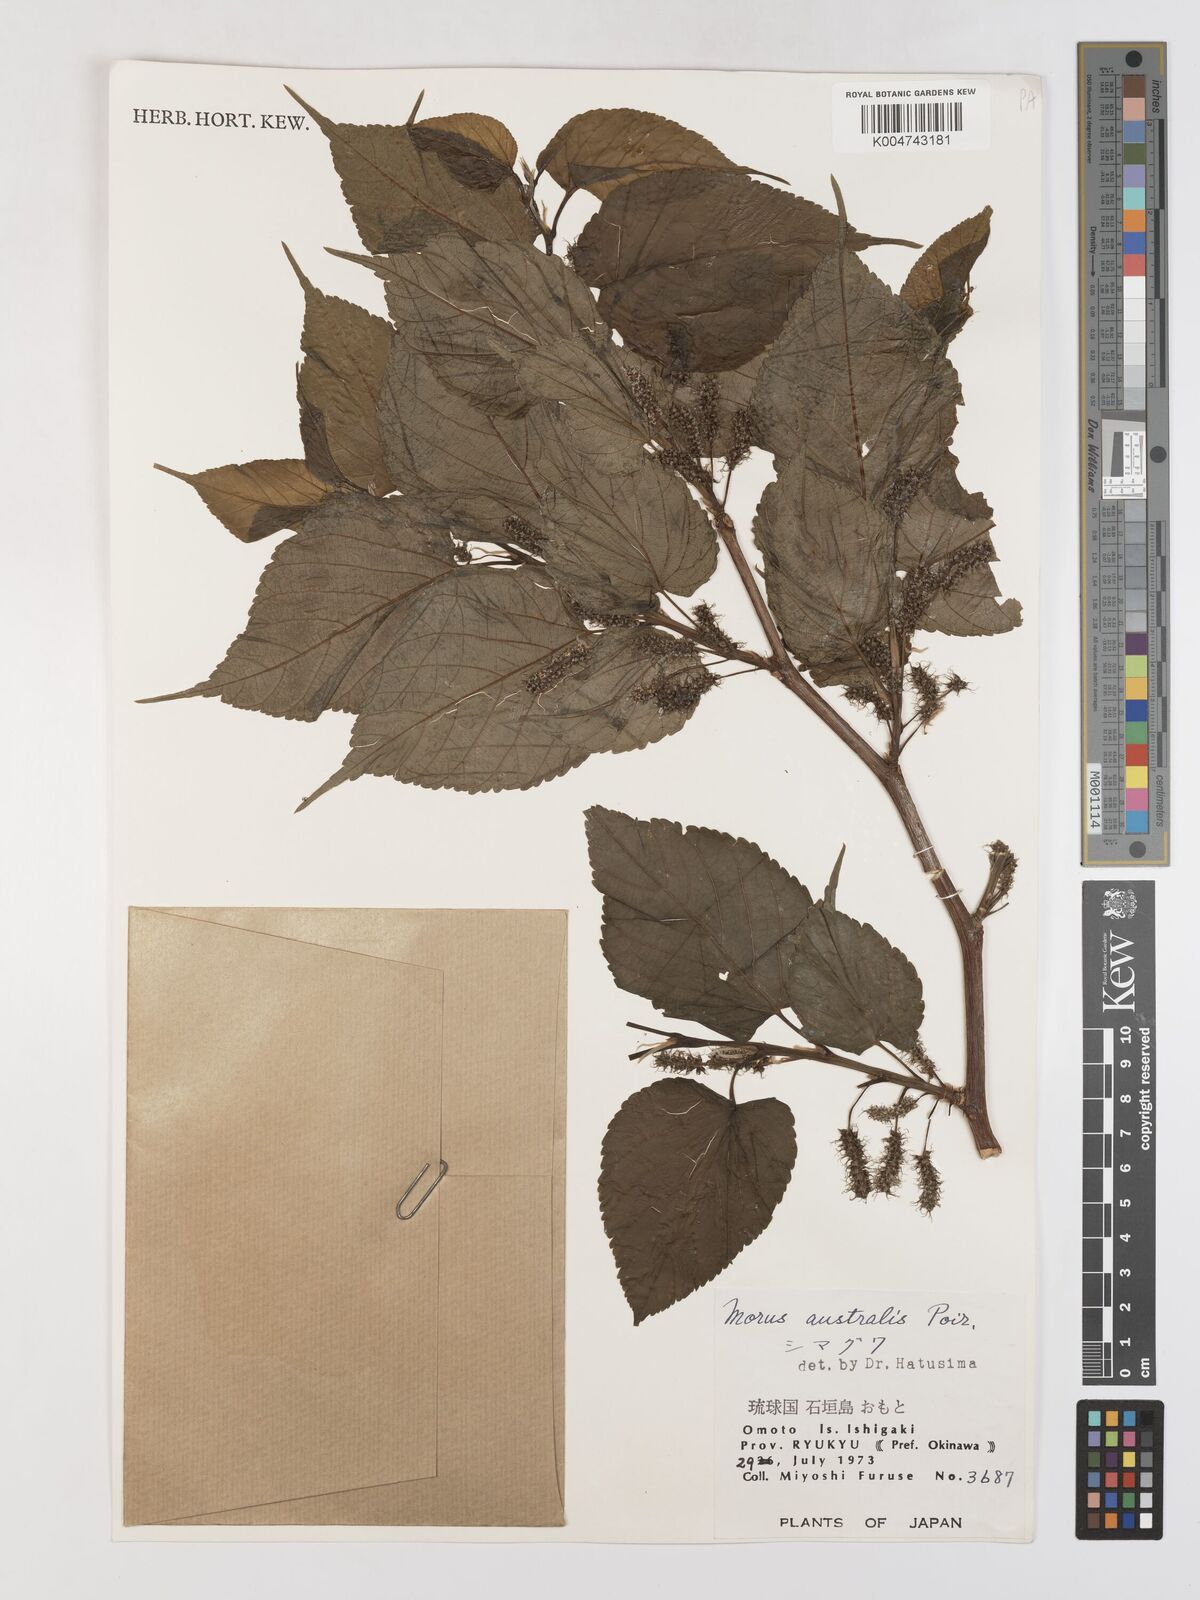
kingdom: Plantae
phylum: Tracheophyta
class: Magnoliopsida
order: Rosales
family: Moraceae
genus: Morus
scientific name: Morus indica
